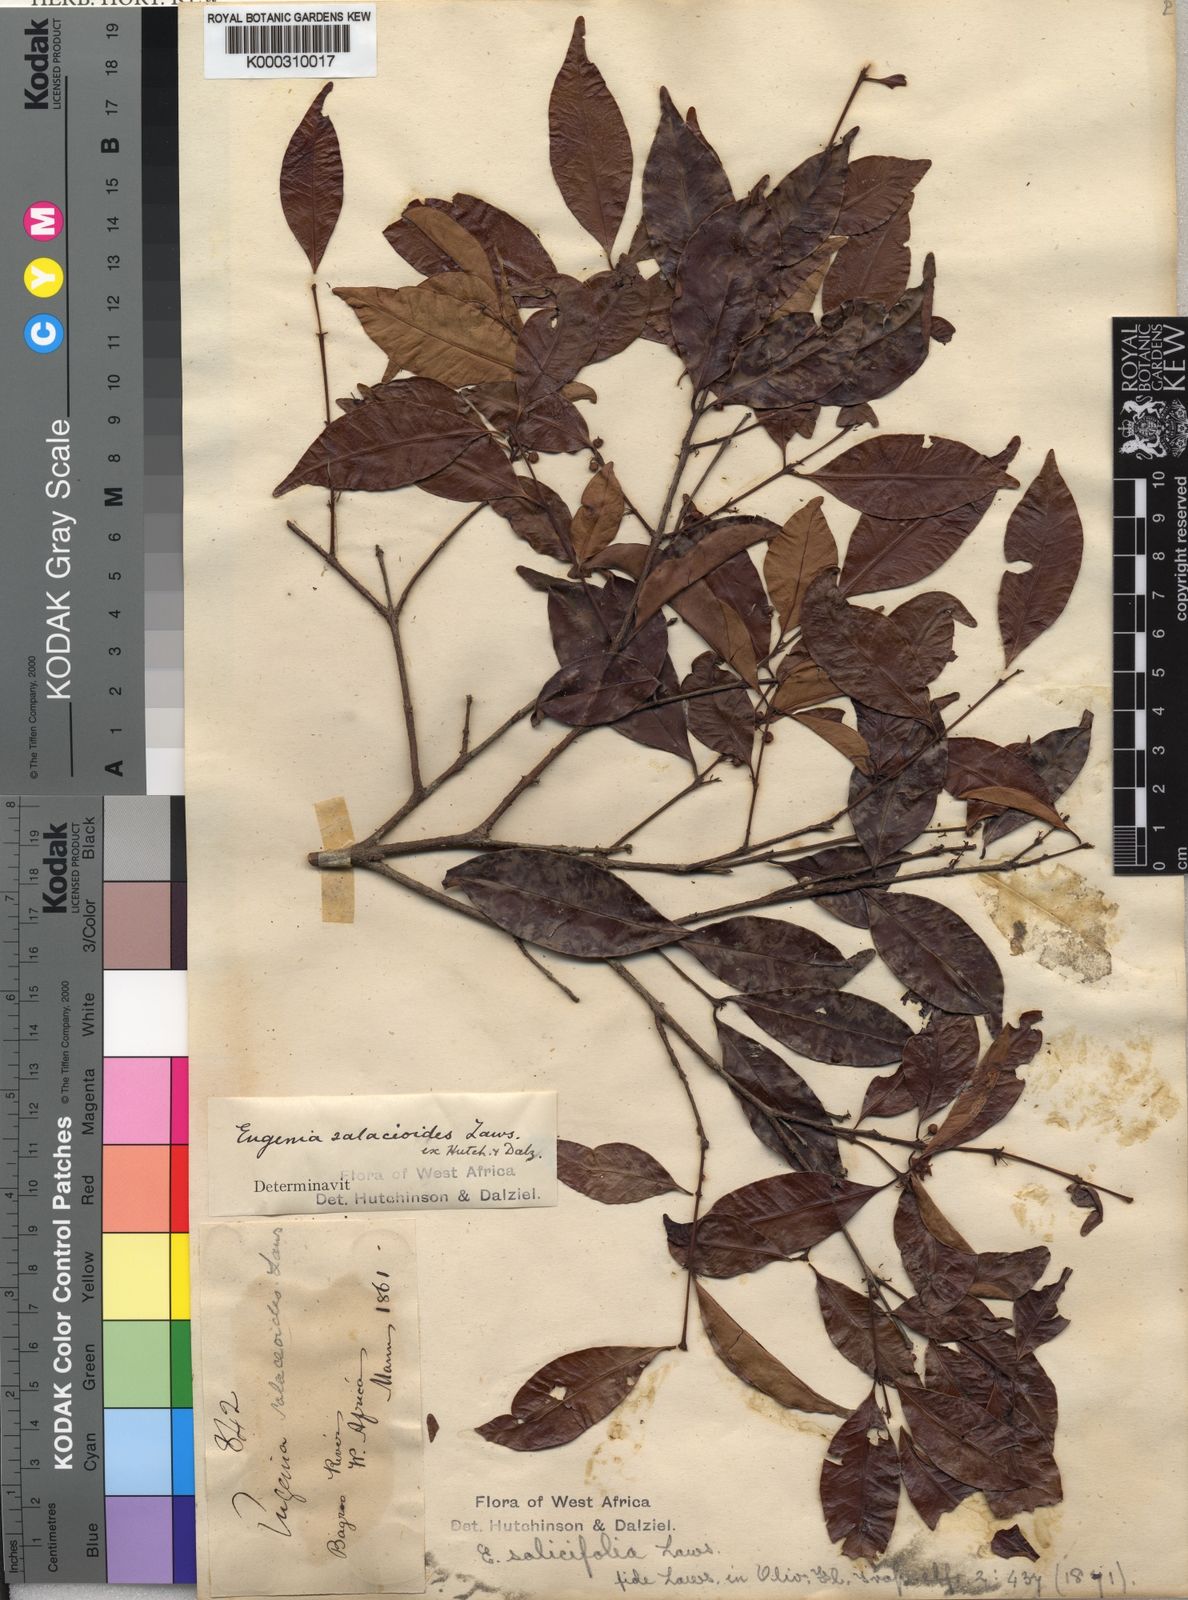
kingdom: Plantae
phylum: Tracheophyta
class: Magnoliopsida
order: Myrtales
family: Myrtaceae
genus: Eugenia
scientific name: Eugenia leonensis
